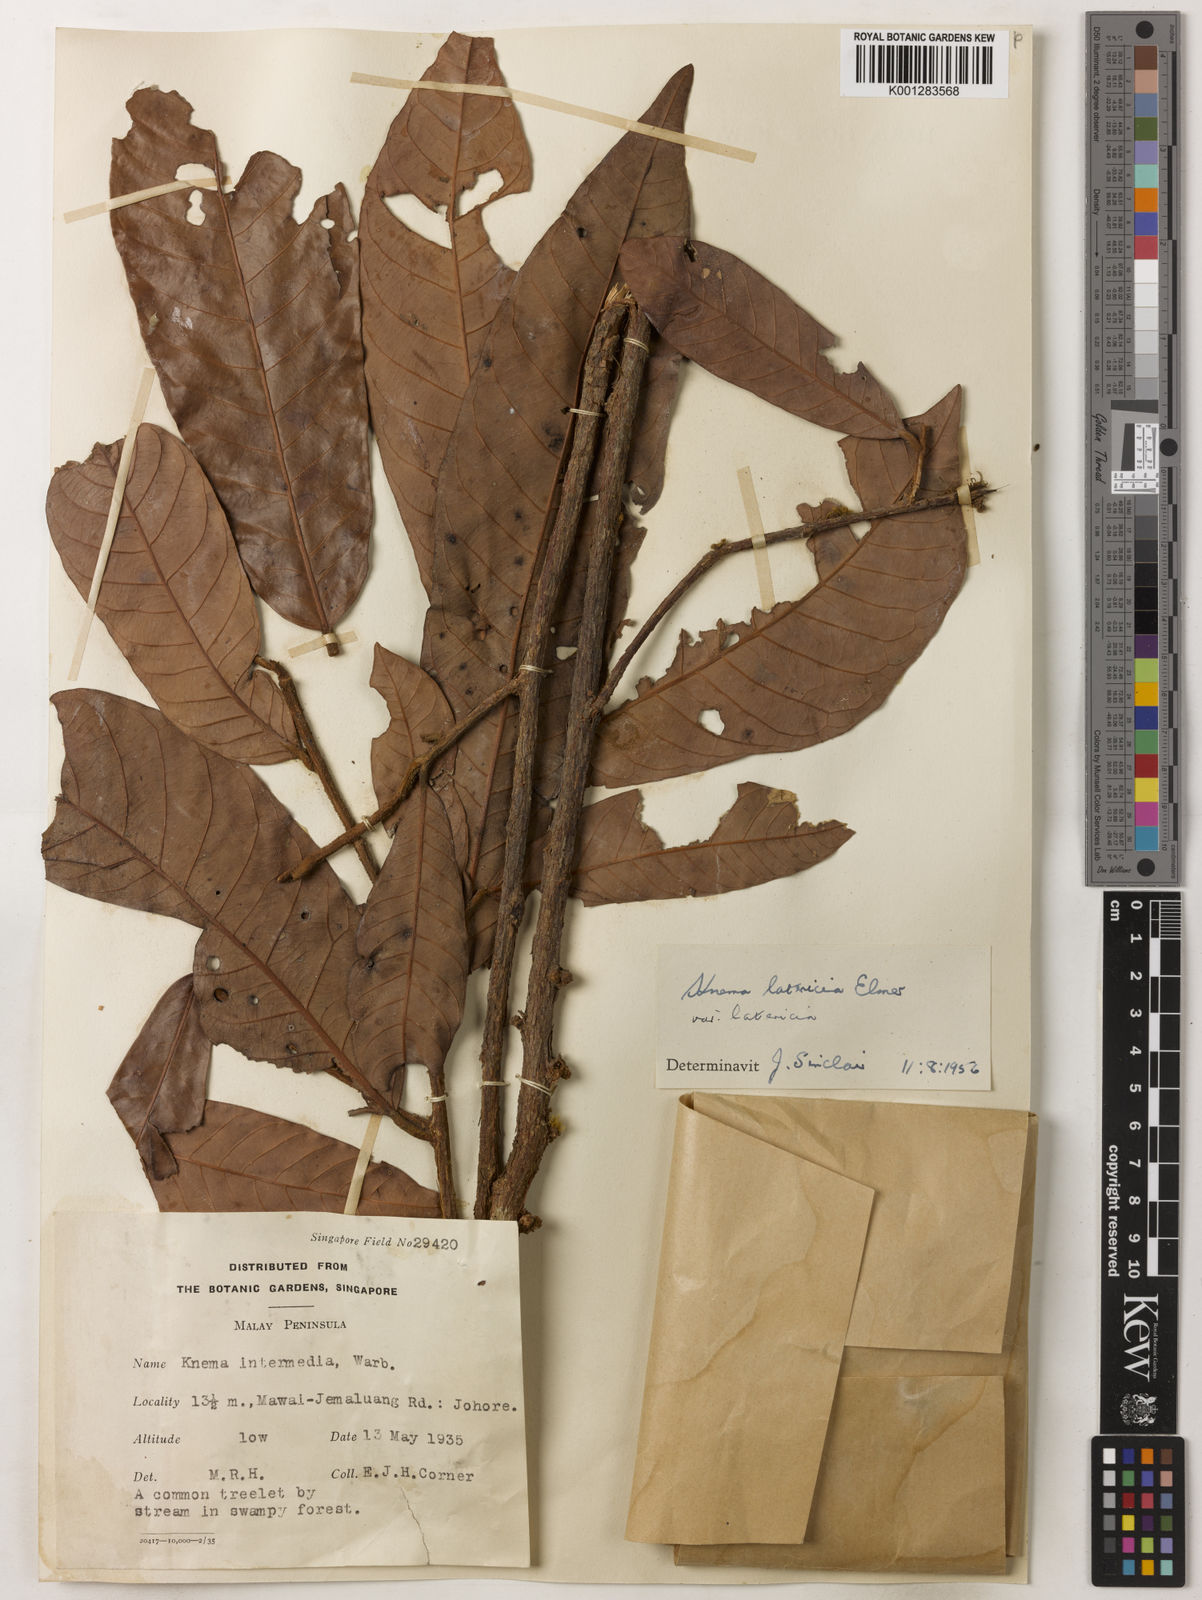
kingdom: Plantae
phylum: Tracheophyta
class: Magnoliopsida
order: Magnoliales
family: Myristicaceae
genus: Knema
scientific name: Knema latericia
